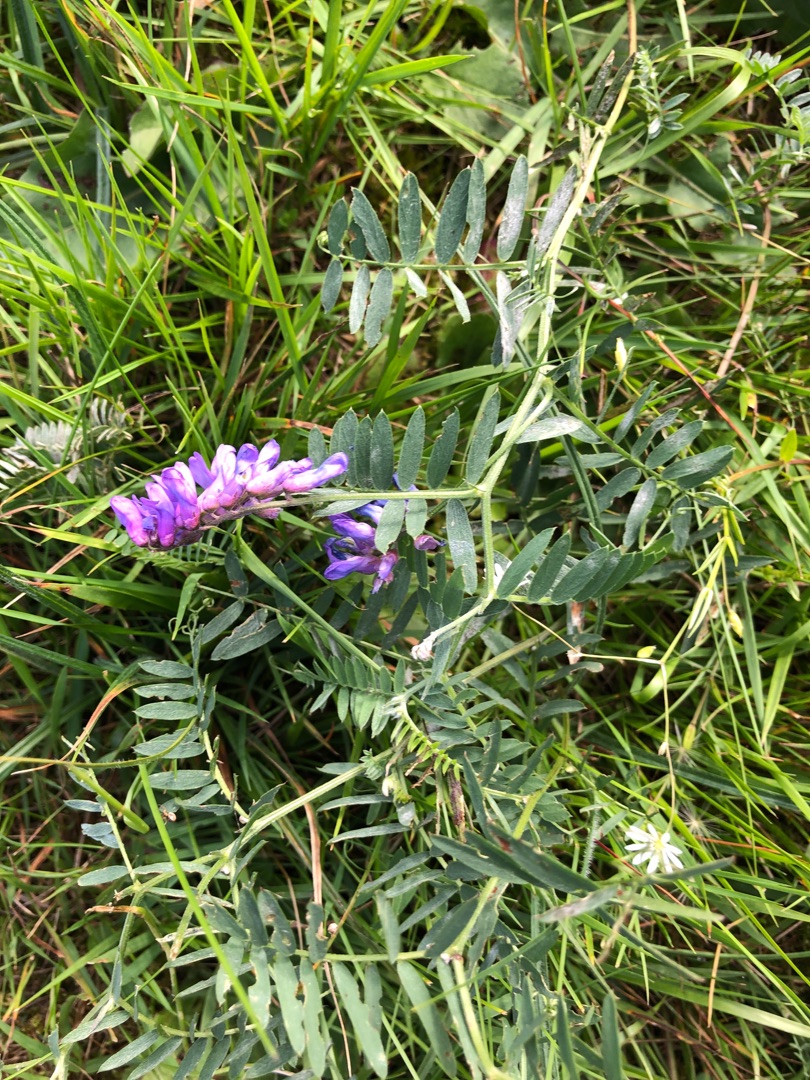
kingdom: Plantae
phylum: Tracheophyta
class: Magnoliopsida
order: Fabales
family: Fabaceae
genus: Vicia
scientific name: Vicia cracca
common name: Muse-vikke
